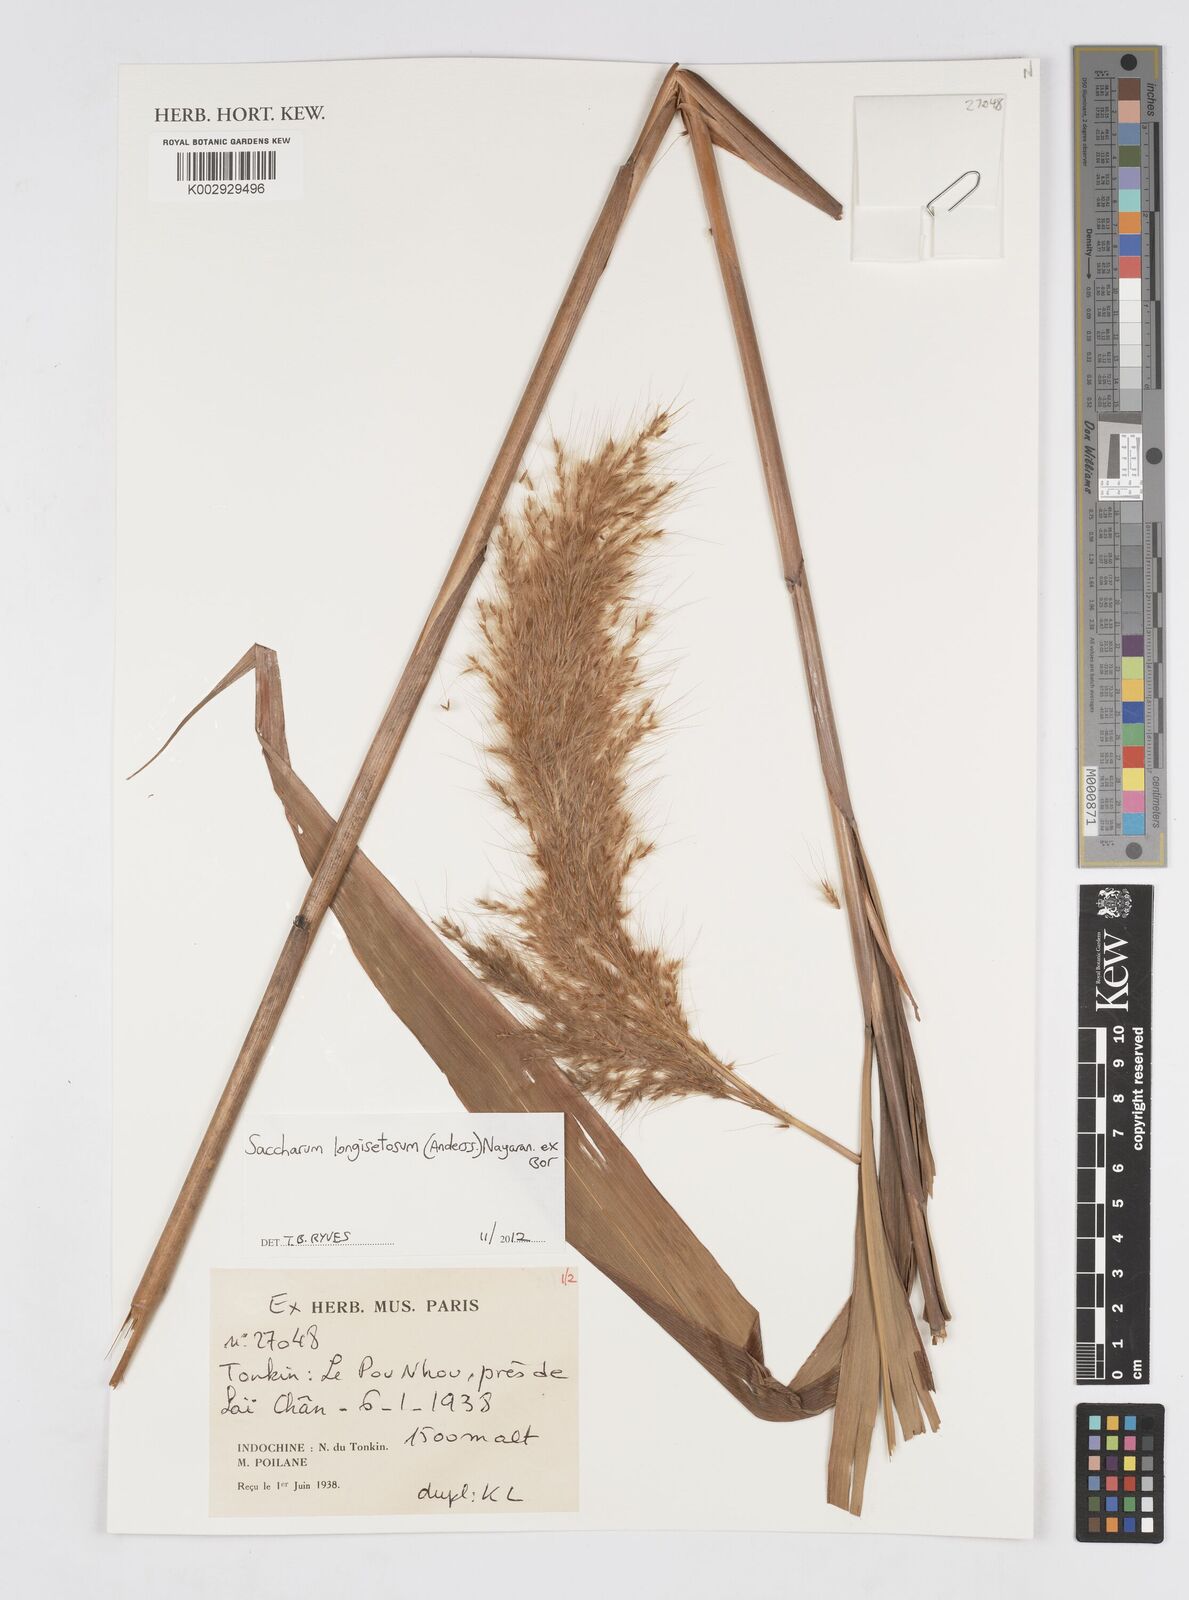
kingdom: Plantae
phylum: Tracheophyta
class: Liliopsida
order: Poales
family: Poaceae
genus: Saccharum
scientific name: Saccharum longesetosum
